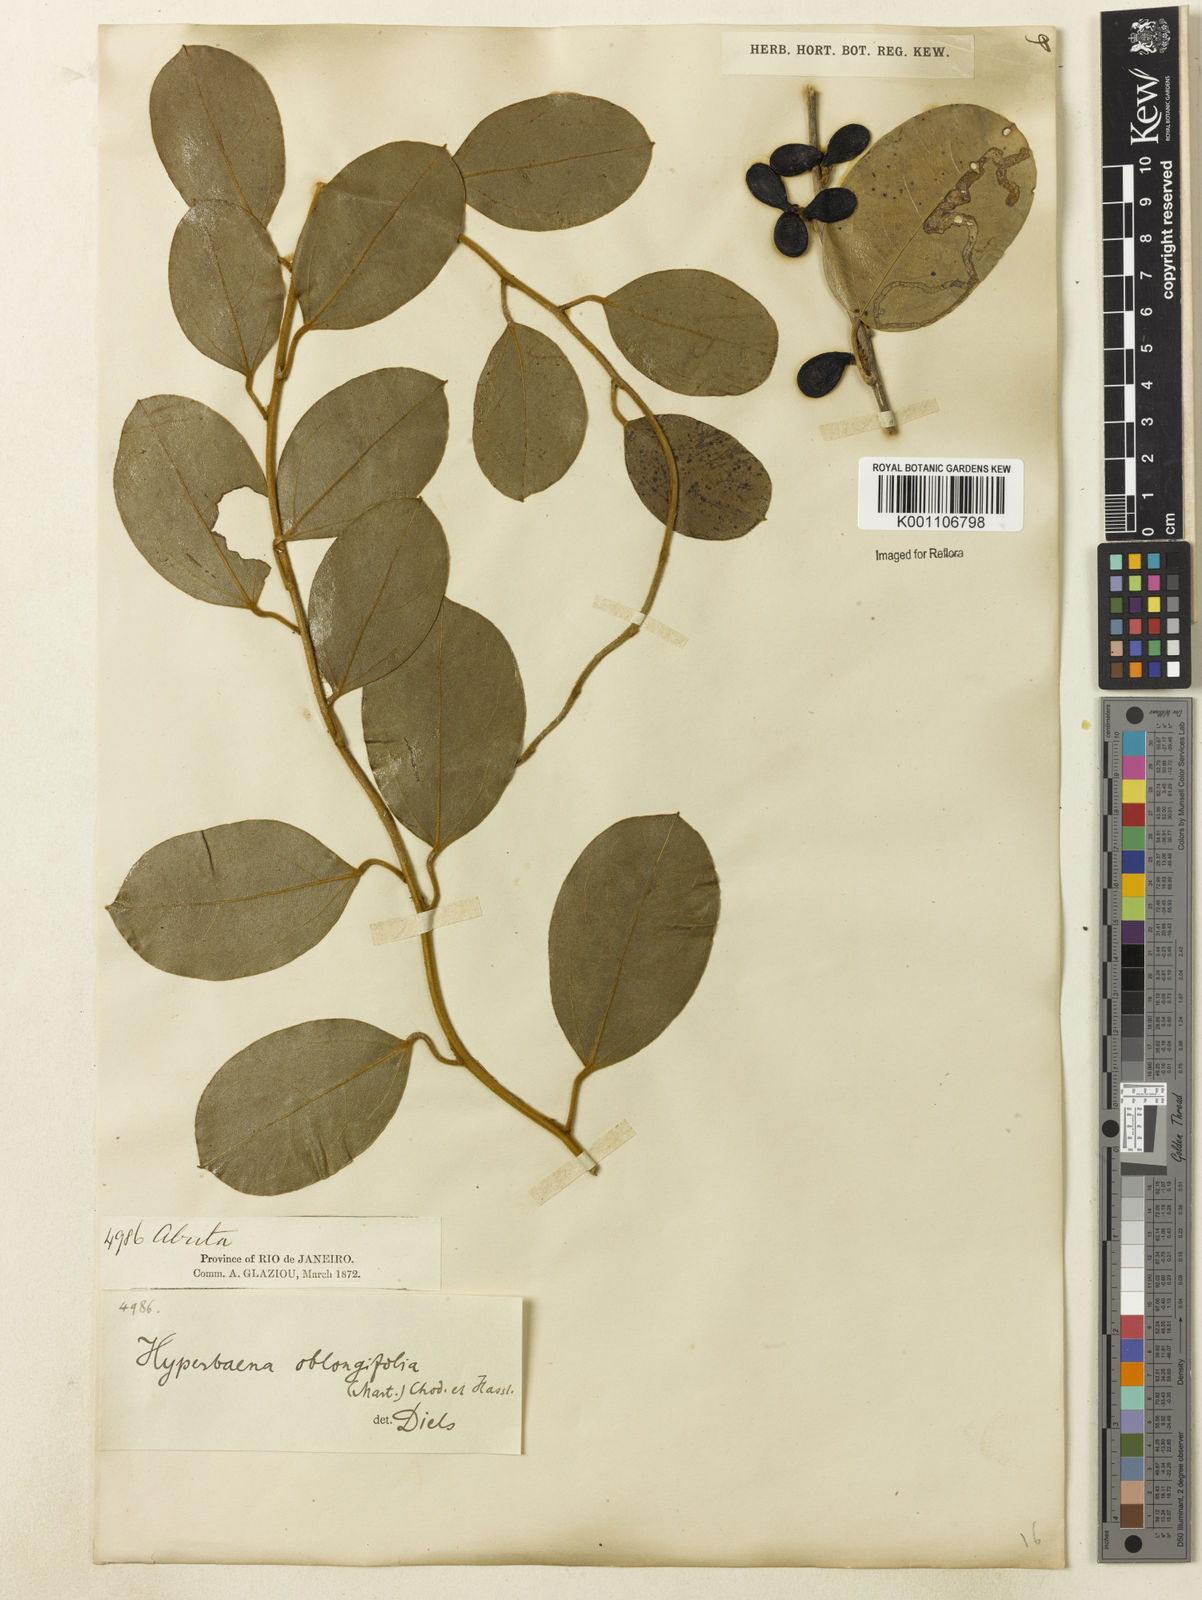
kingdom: Plantae
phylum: Tracheophyta
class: Magnoliopsida
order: Ranunculales
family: Menispermaceae
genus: Hyperbaena
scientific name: Hyperbaena hassleri
